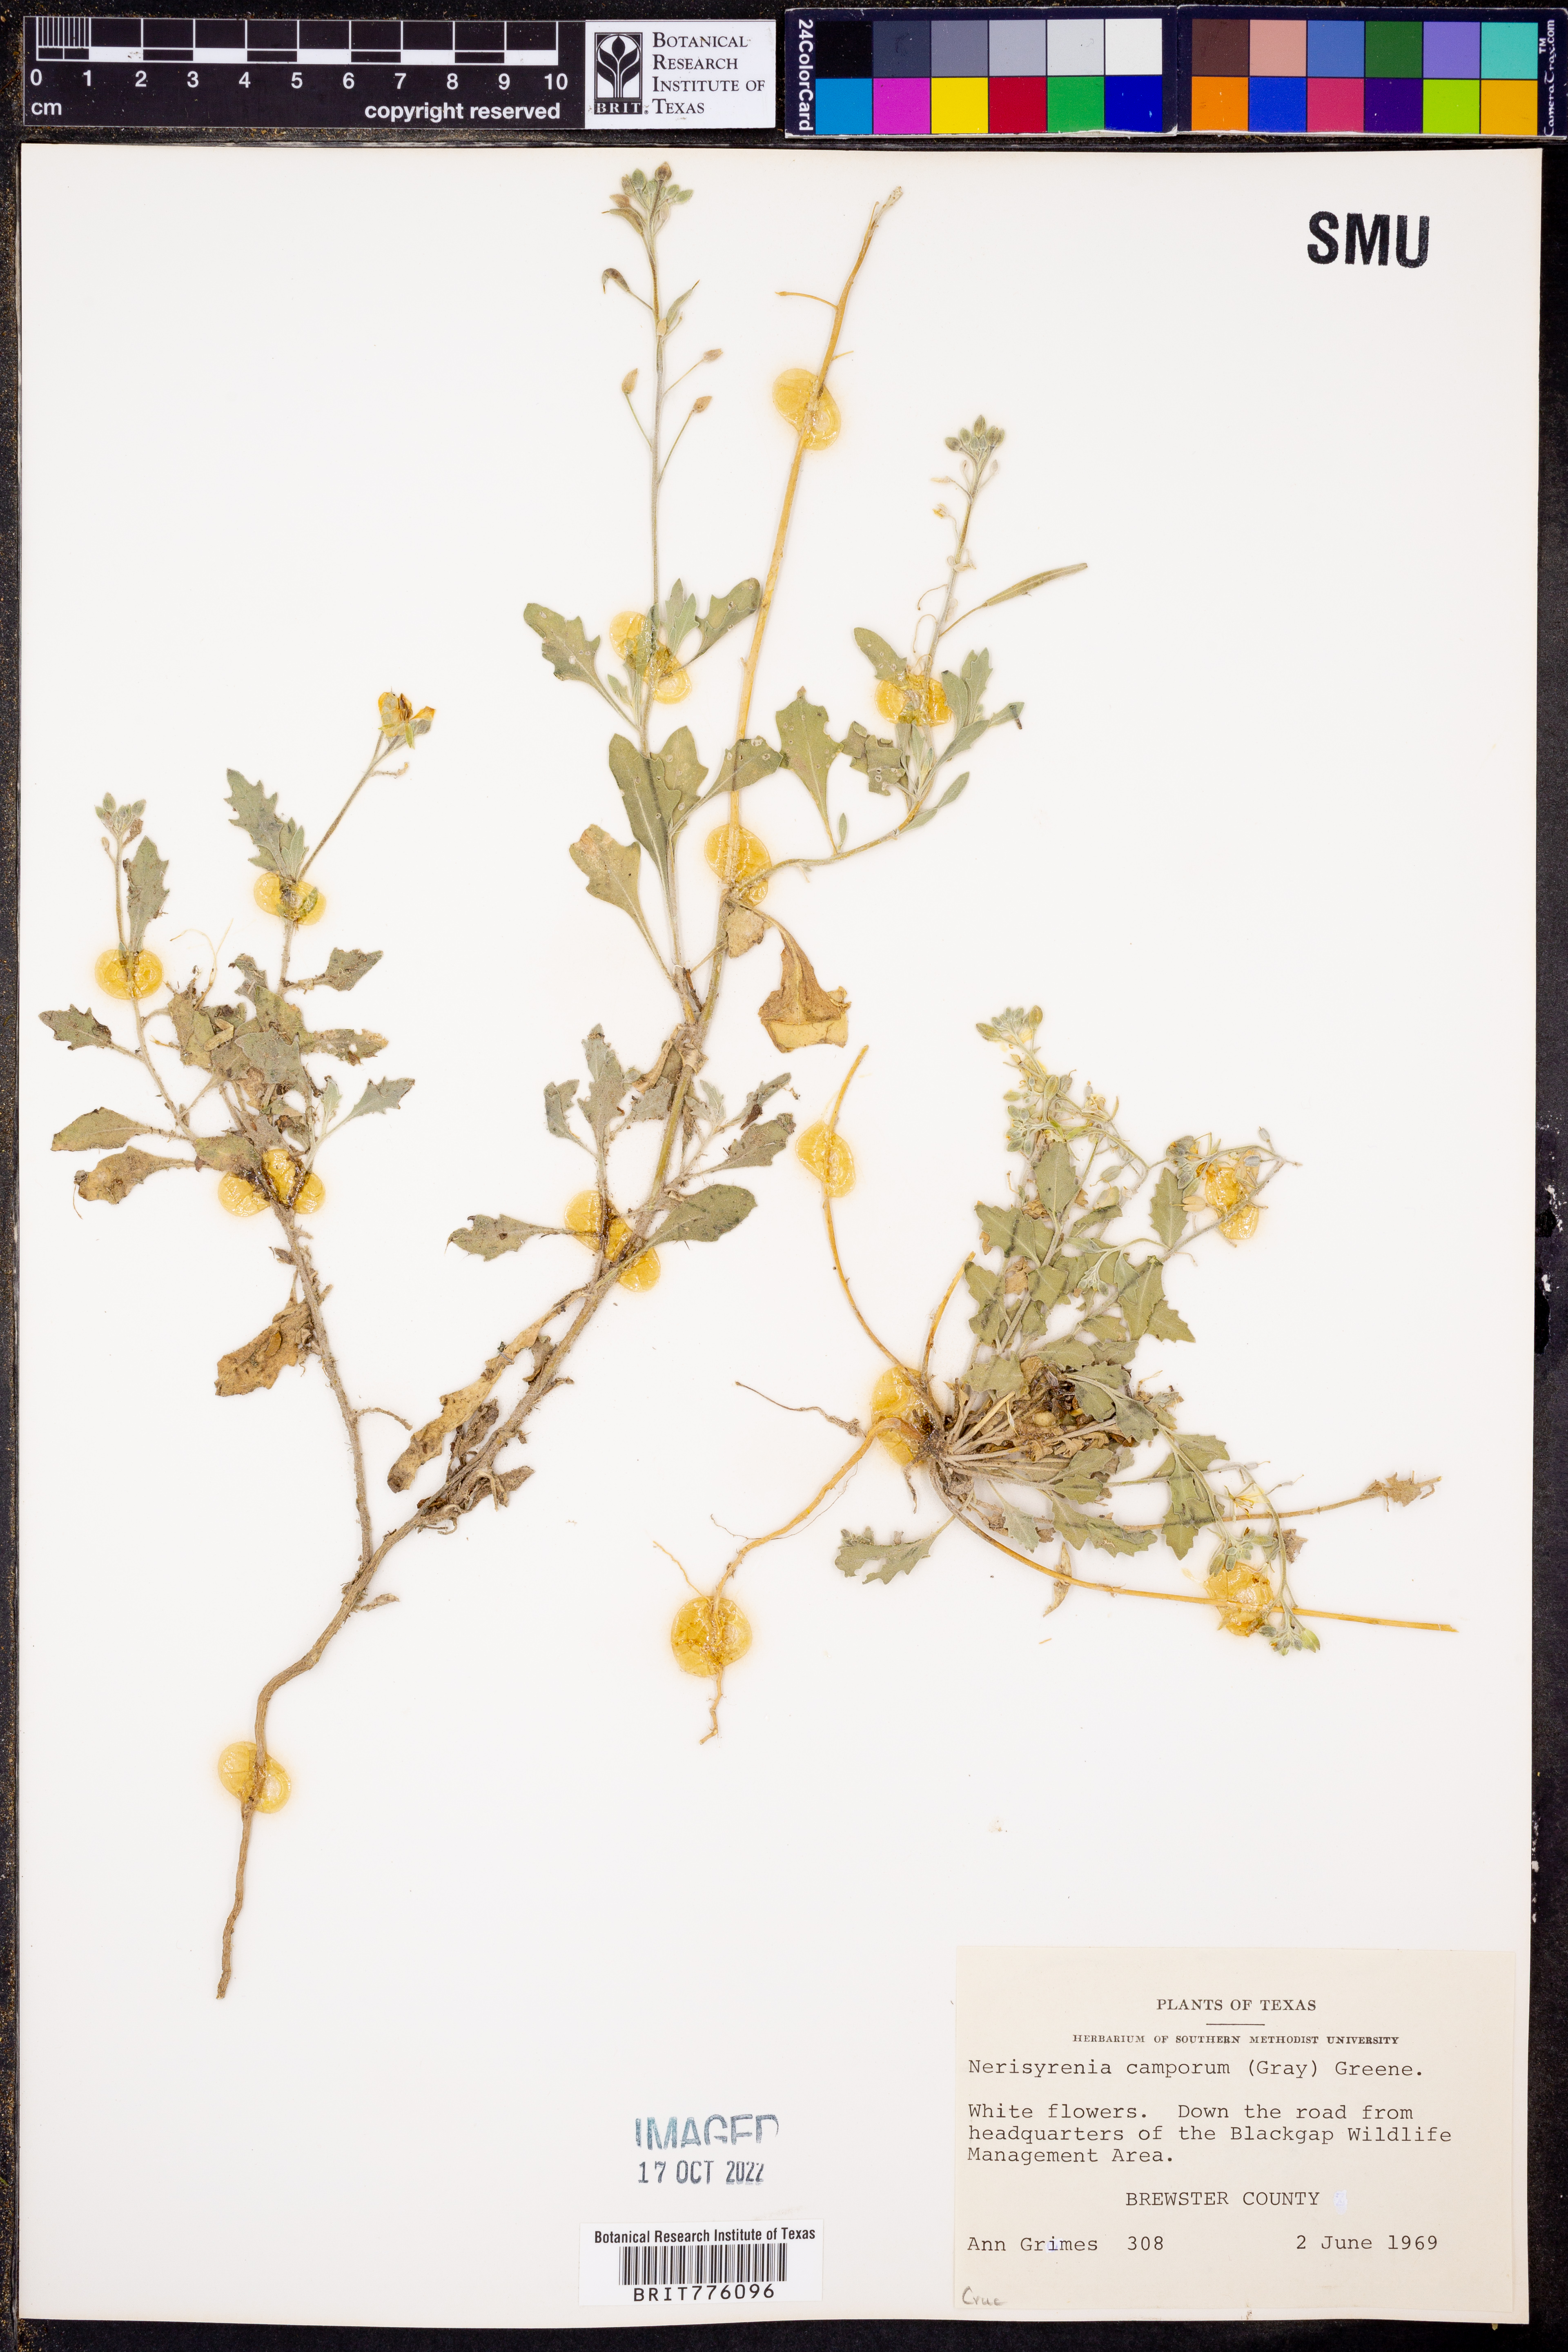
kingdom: Plantae
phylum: Tracheophyta
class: Magnoliopsida
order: Brassicales
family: Brassicaceae
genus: Nerisyrenia
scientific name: Nerisyrenia camporum
